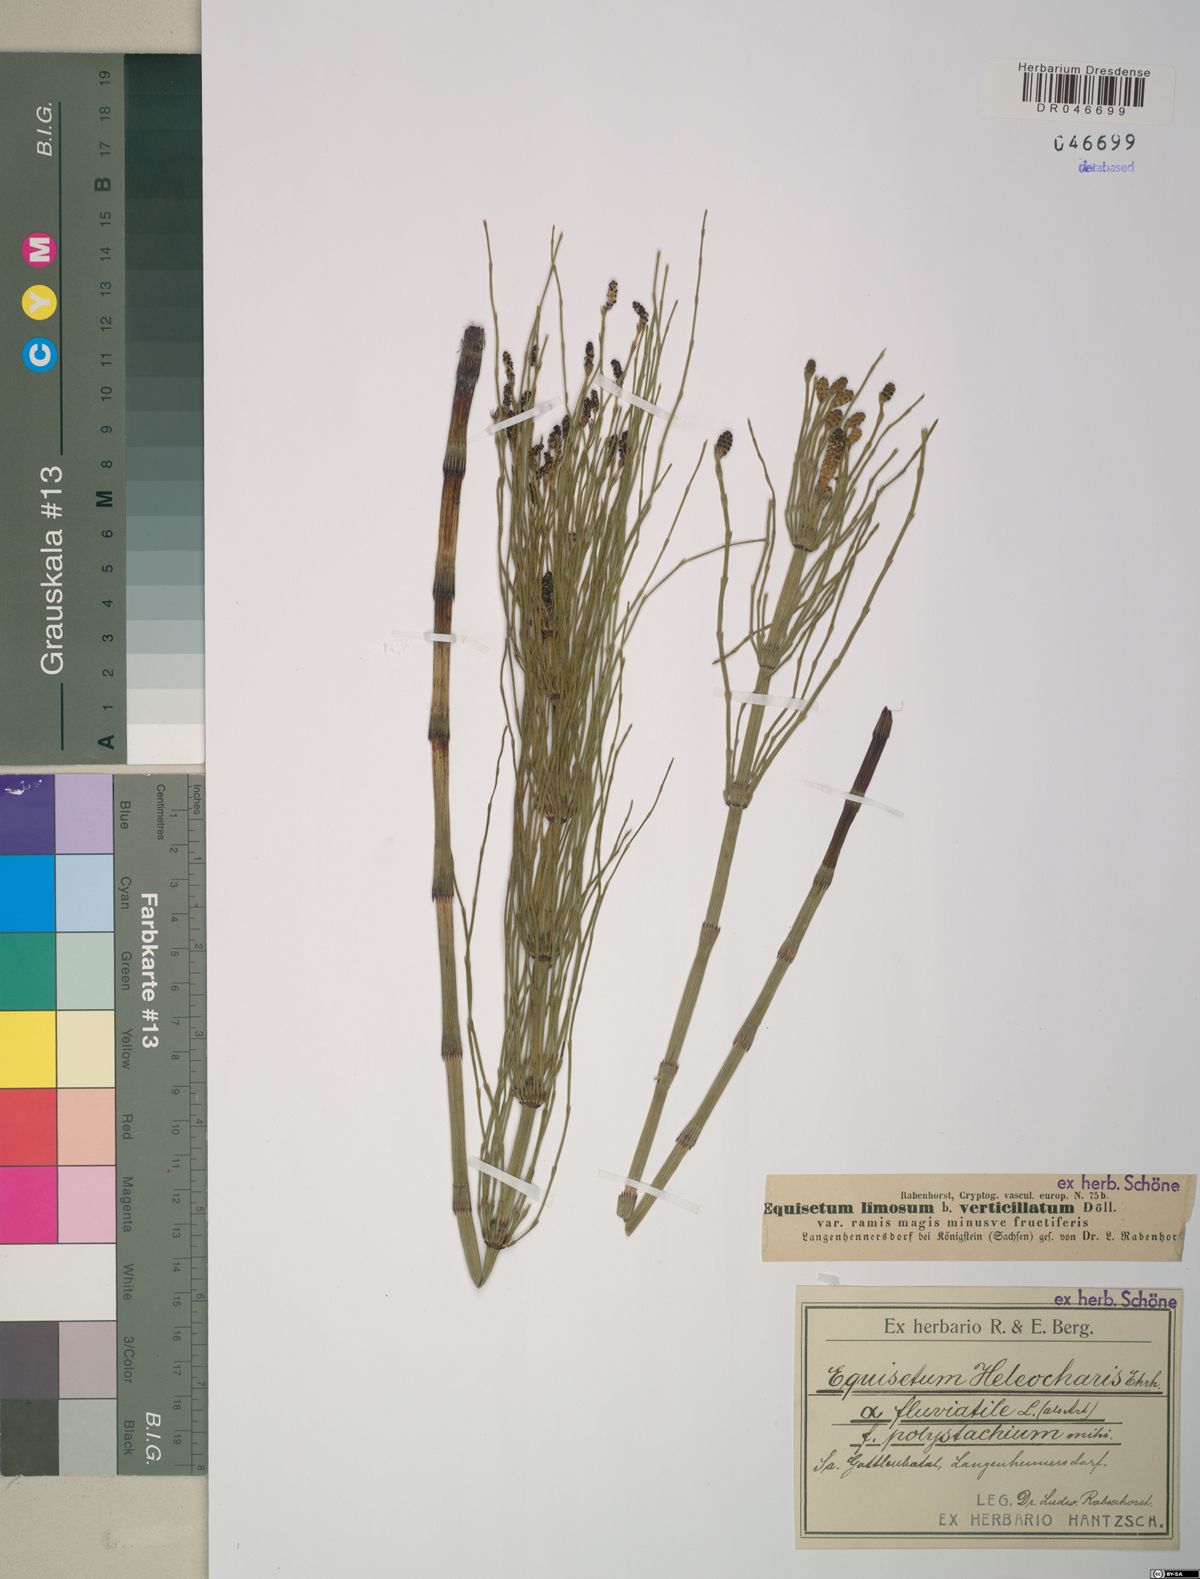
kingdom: Plantae
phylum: Tracheophyta
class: Polypodiopsida
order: Equisetales
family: Equisetaceae
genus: Equisetum
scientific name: Equisetum fluviatile
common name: Water horsetail
